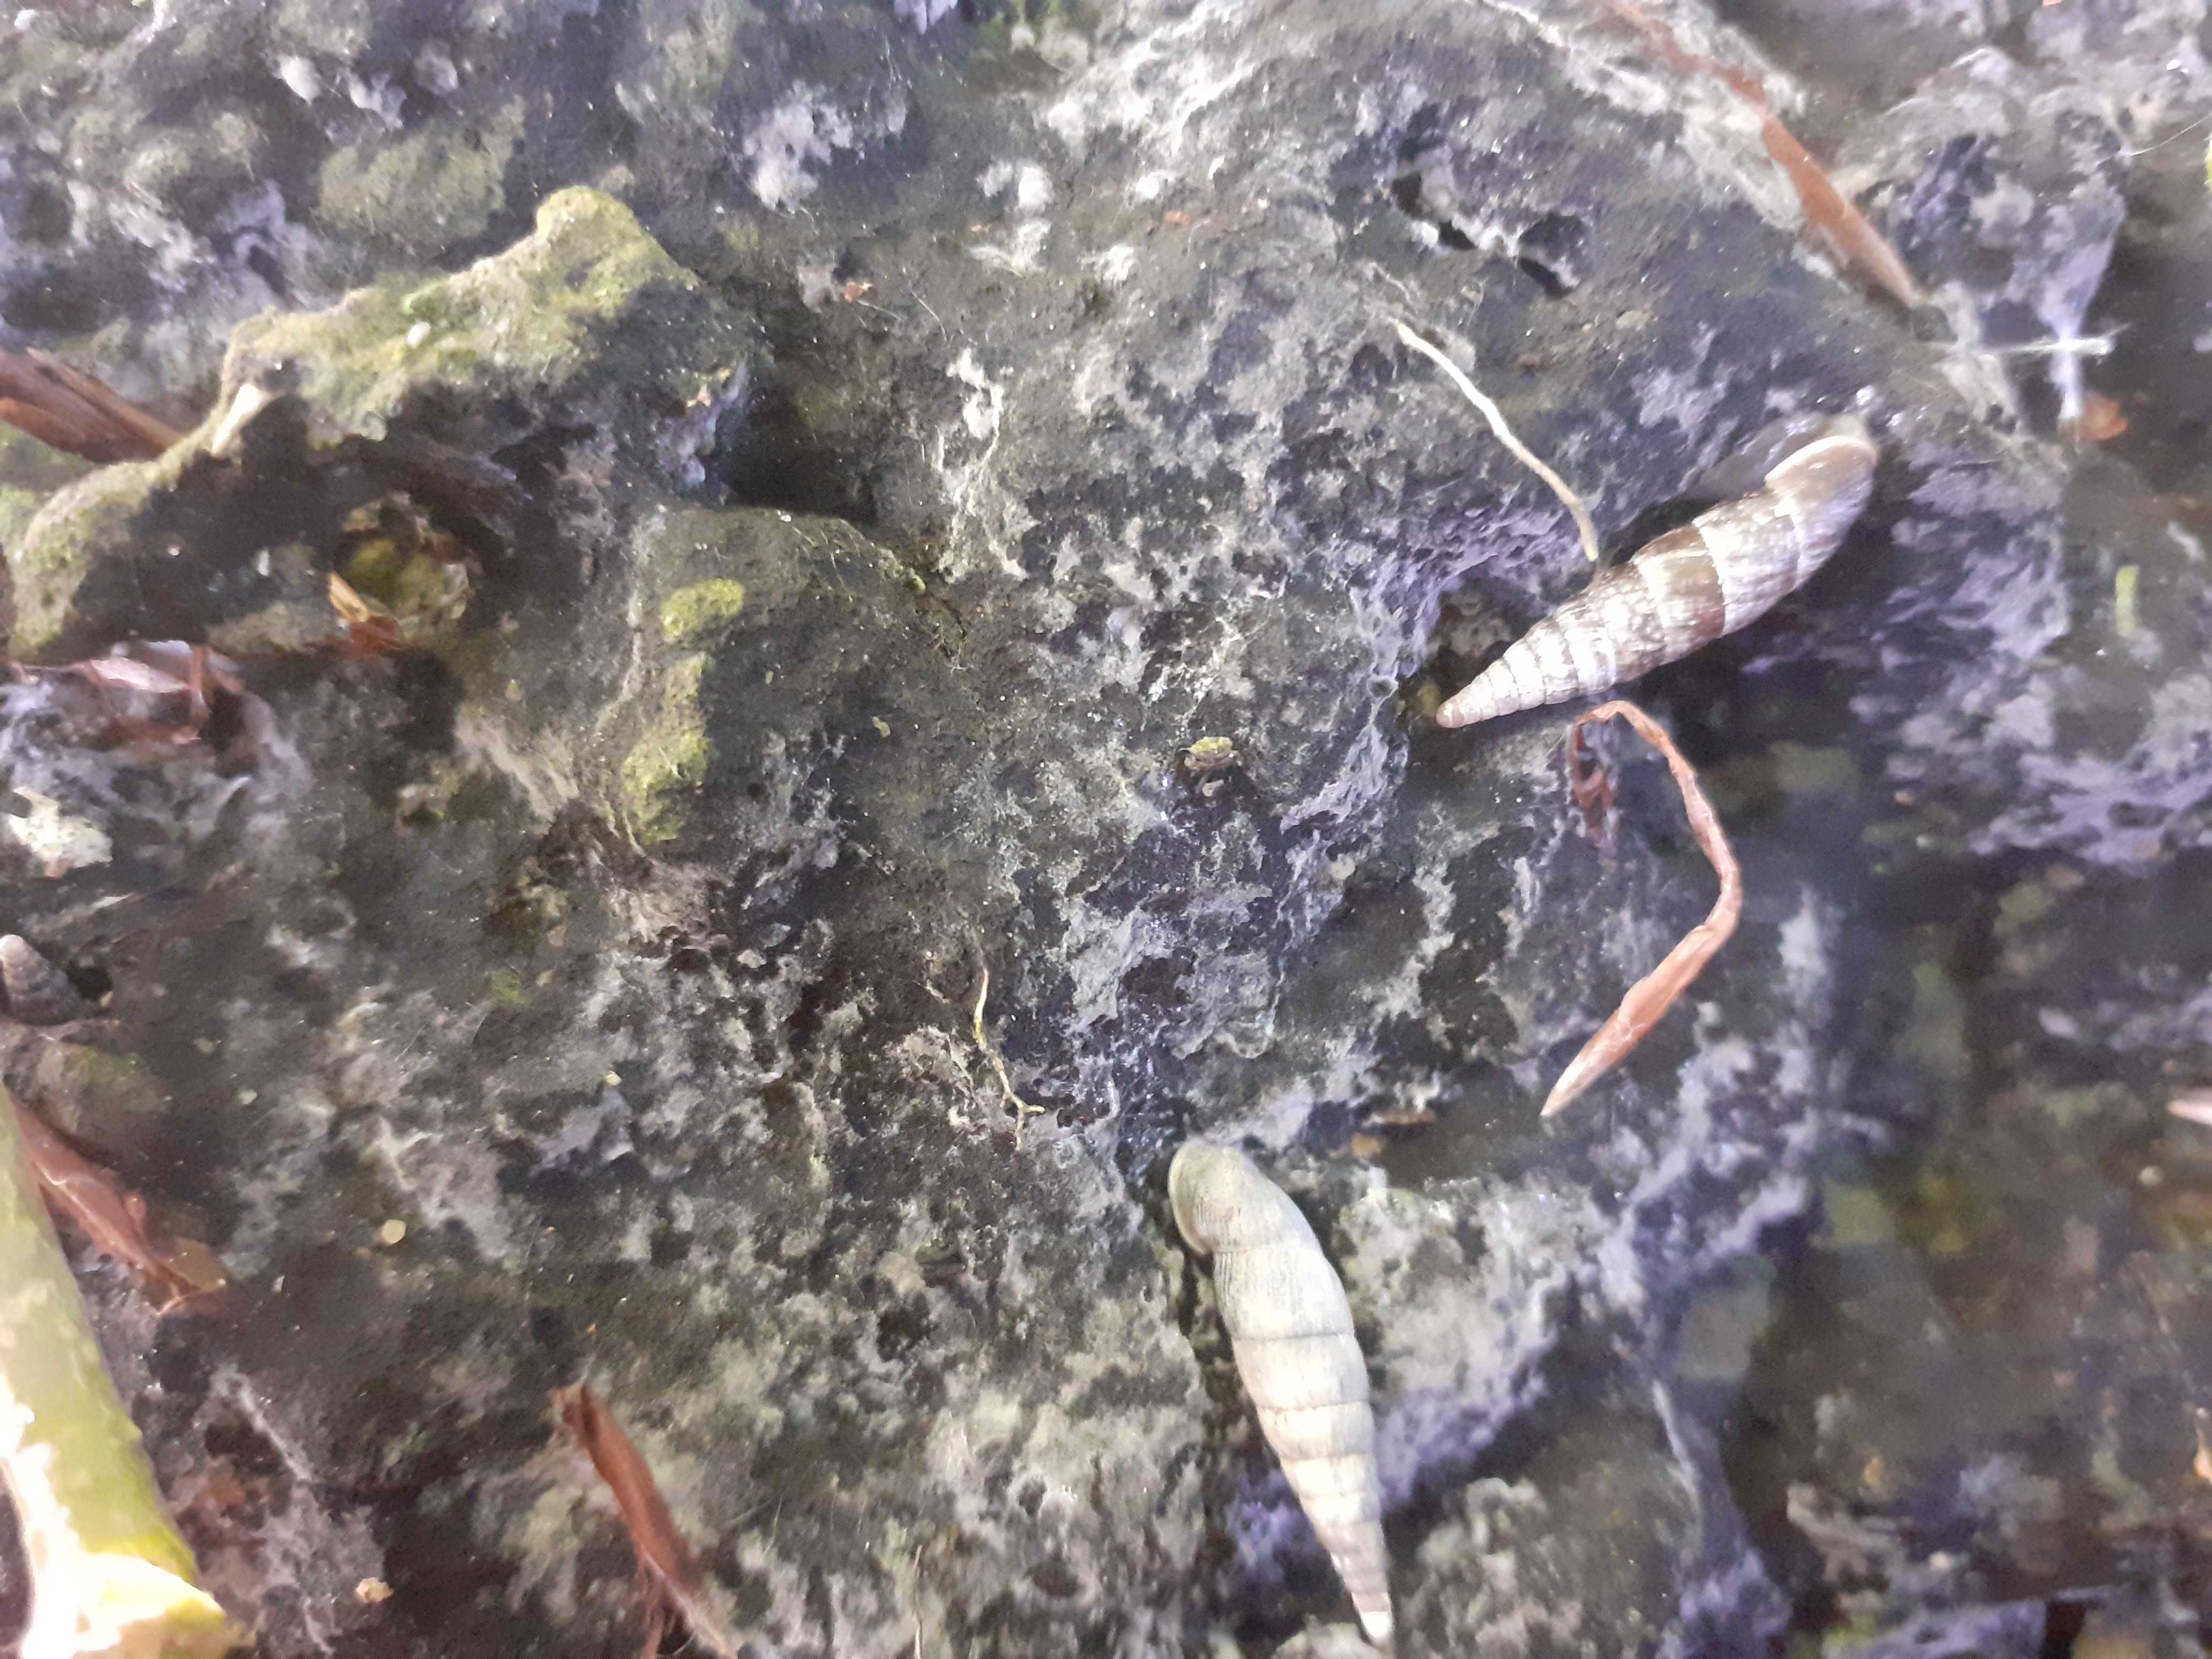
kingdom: Fungi
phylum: Basidiomycota
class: Agaricomycetes
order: Thelephorales
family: Thelephoraceae
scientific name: Thelephoraceae
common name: frynsesvampfamilien
